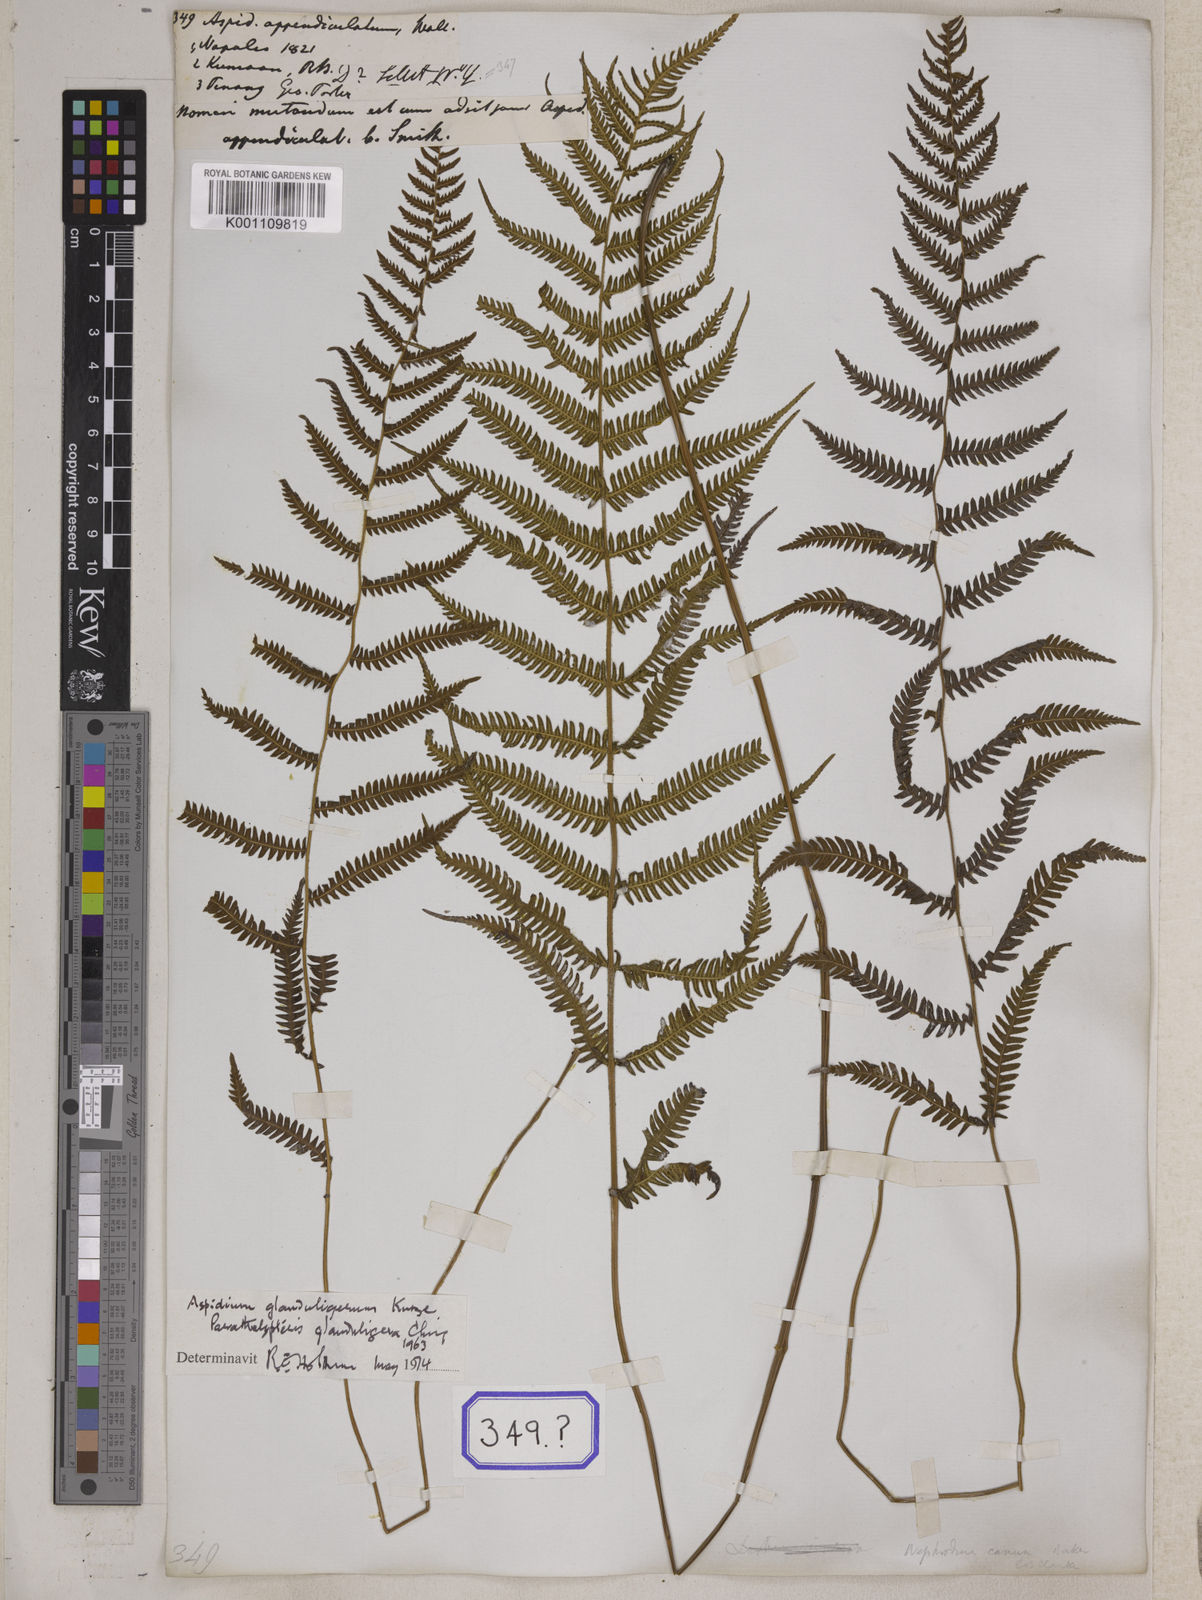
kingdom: Plantae
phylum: Tracheophyta
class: Polypodiopsida
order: Polypodiales
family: Thelypteridaceae
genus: Christella
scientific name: Christella procera
